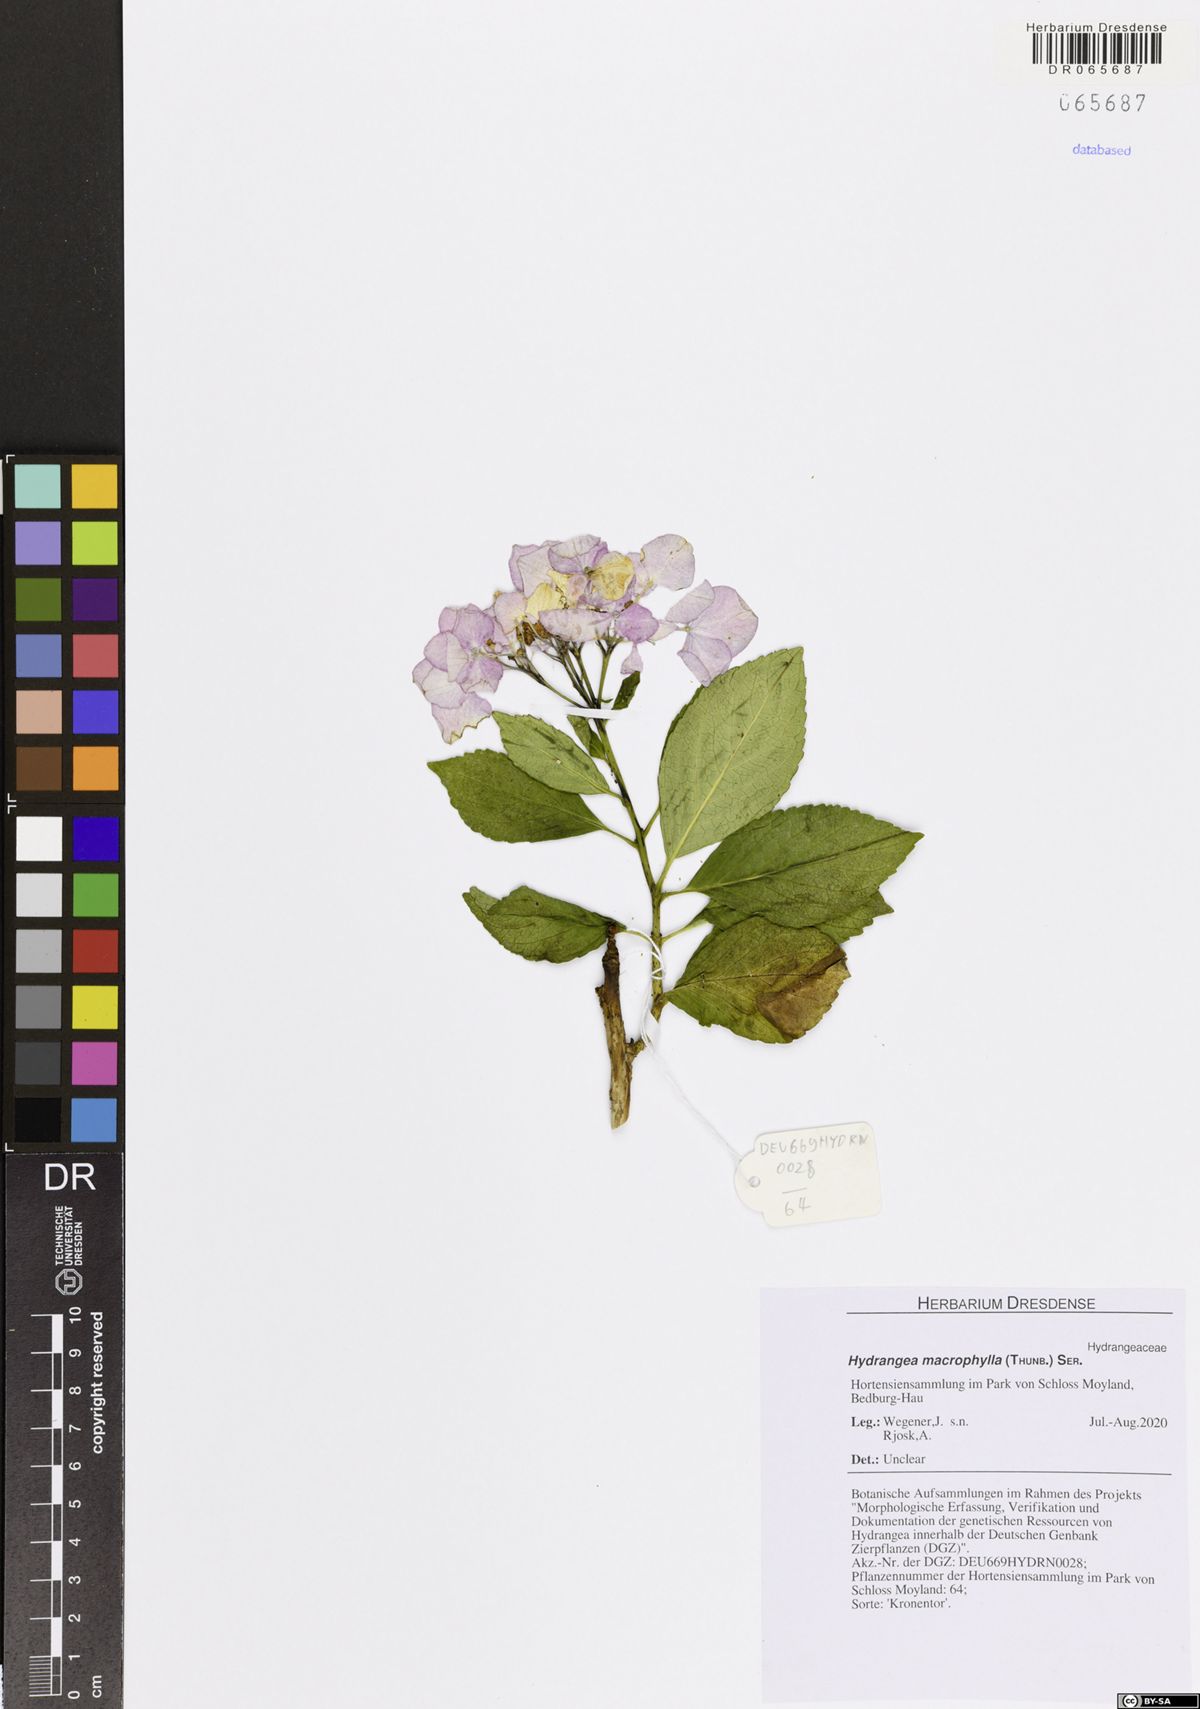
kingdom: Plantae
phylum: Tracheophyta
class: Magnoliopsida
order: Cornales
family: Hydrangeaceae
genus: Hydrangea
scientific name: Hydrangea macrophylla
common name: Hydrangea
